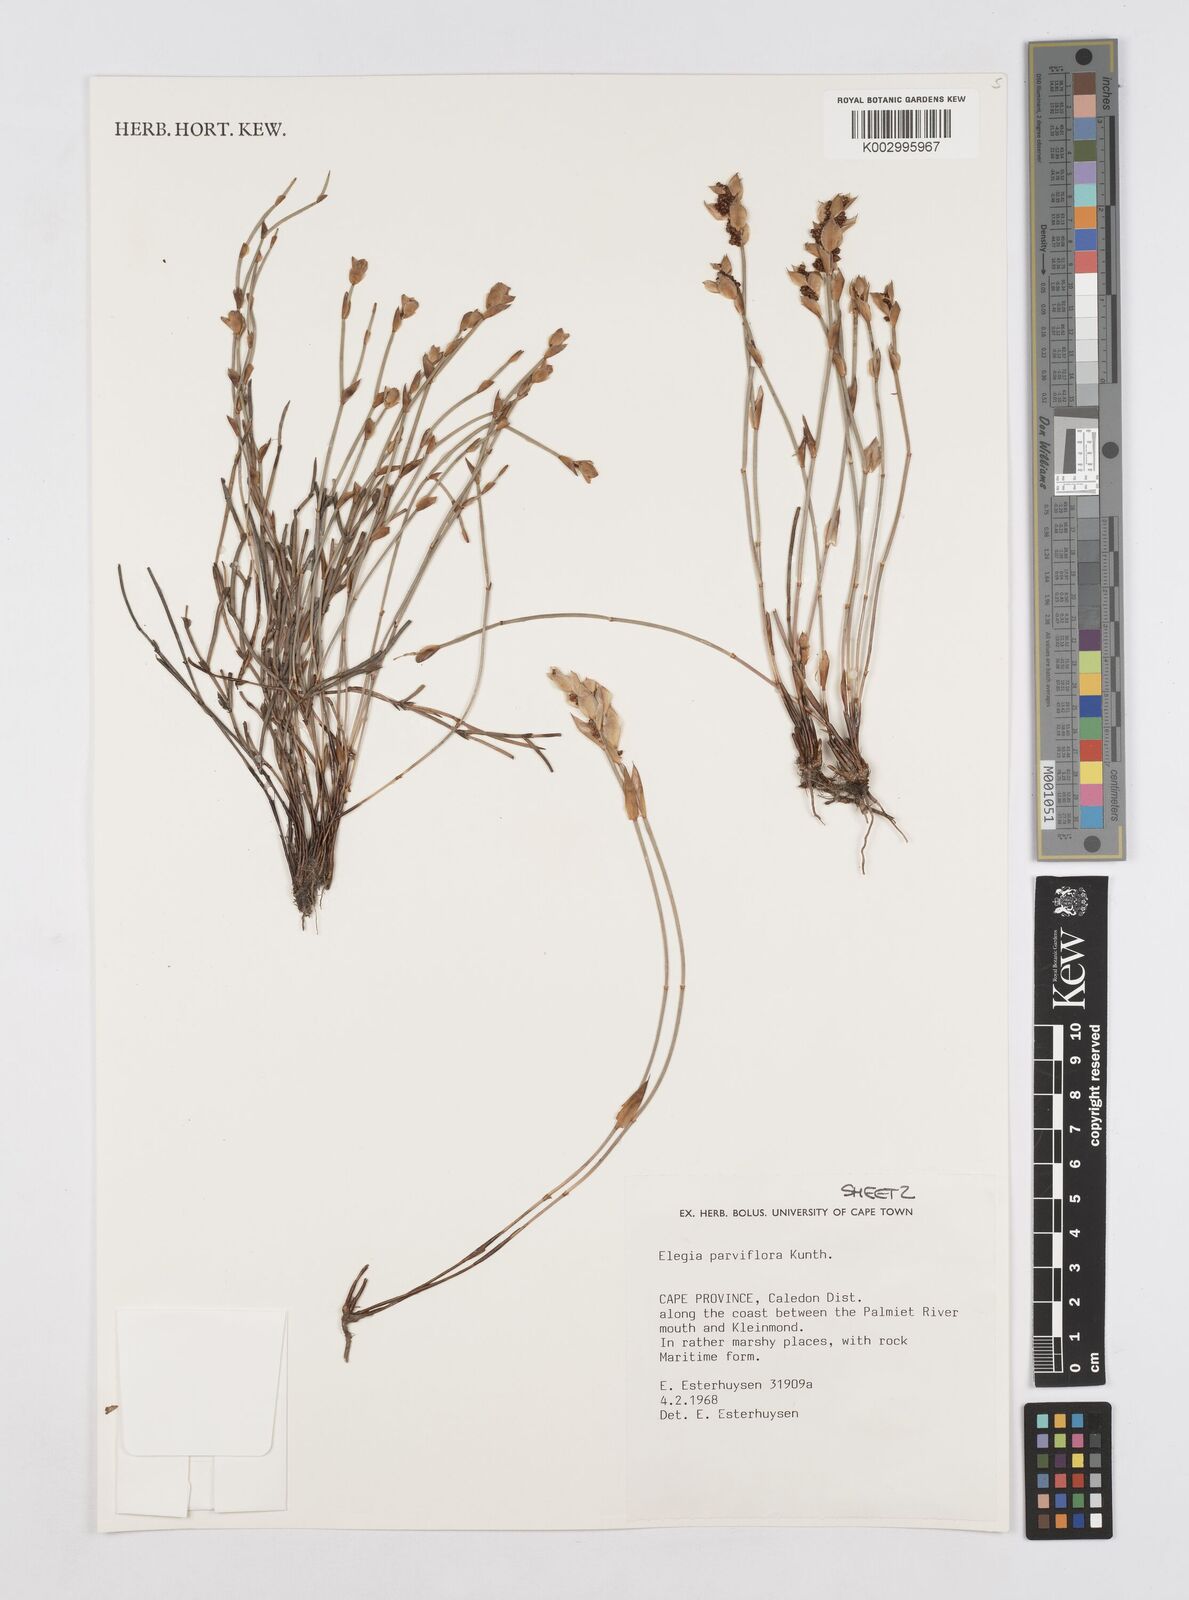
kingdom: Plantae
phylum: Tracheophyta
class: Liliopsida
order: Poales
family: Restionaceae
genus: Cannomois
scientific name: Cannomois parviflora
